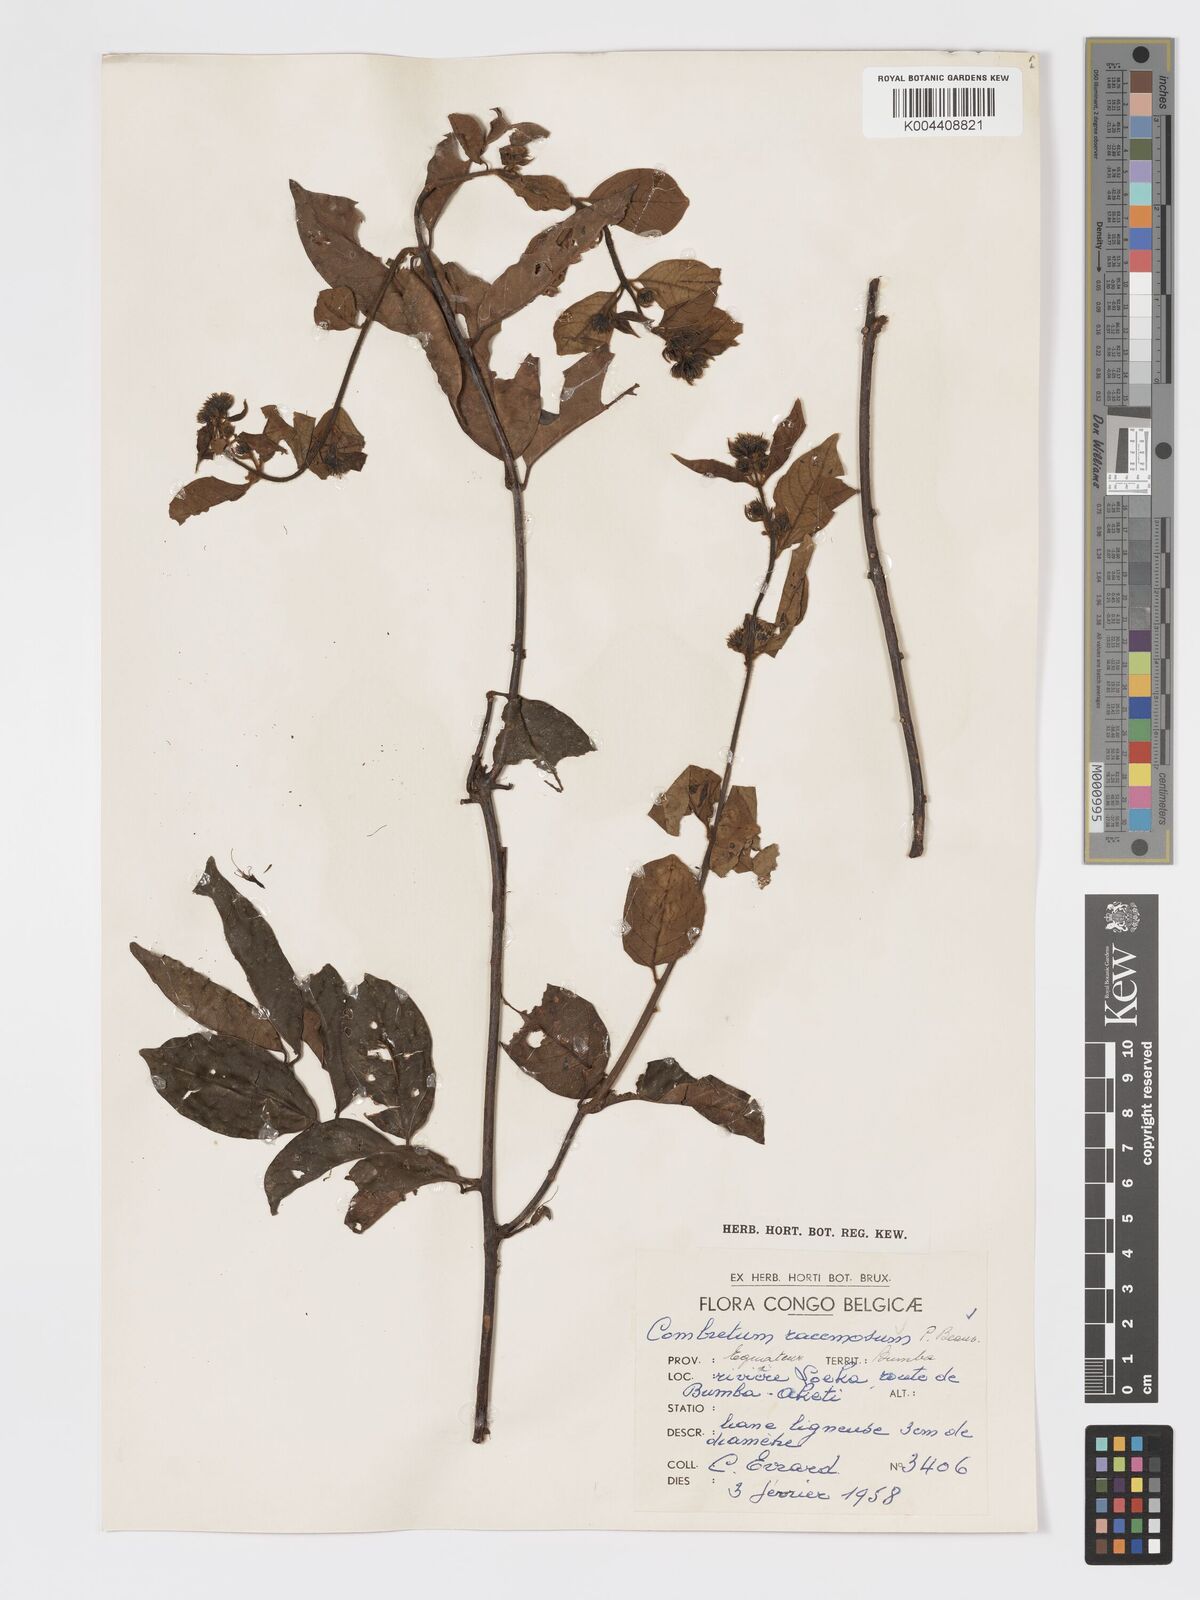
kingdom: Plantae
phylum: Tracheophyta
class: Magnoliopsida
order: Myrtales
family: Combretaceae
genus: Combretum
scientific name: Combretum racemosum
